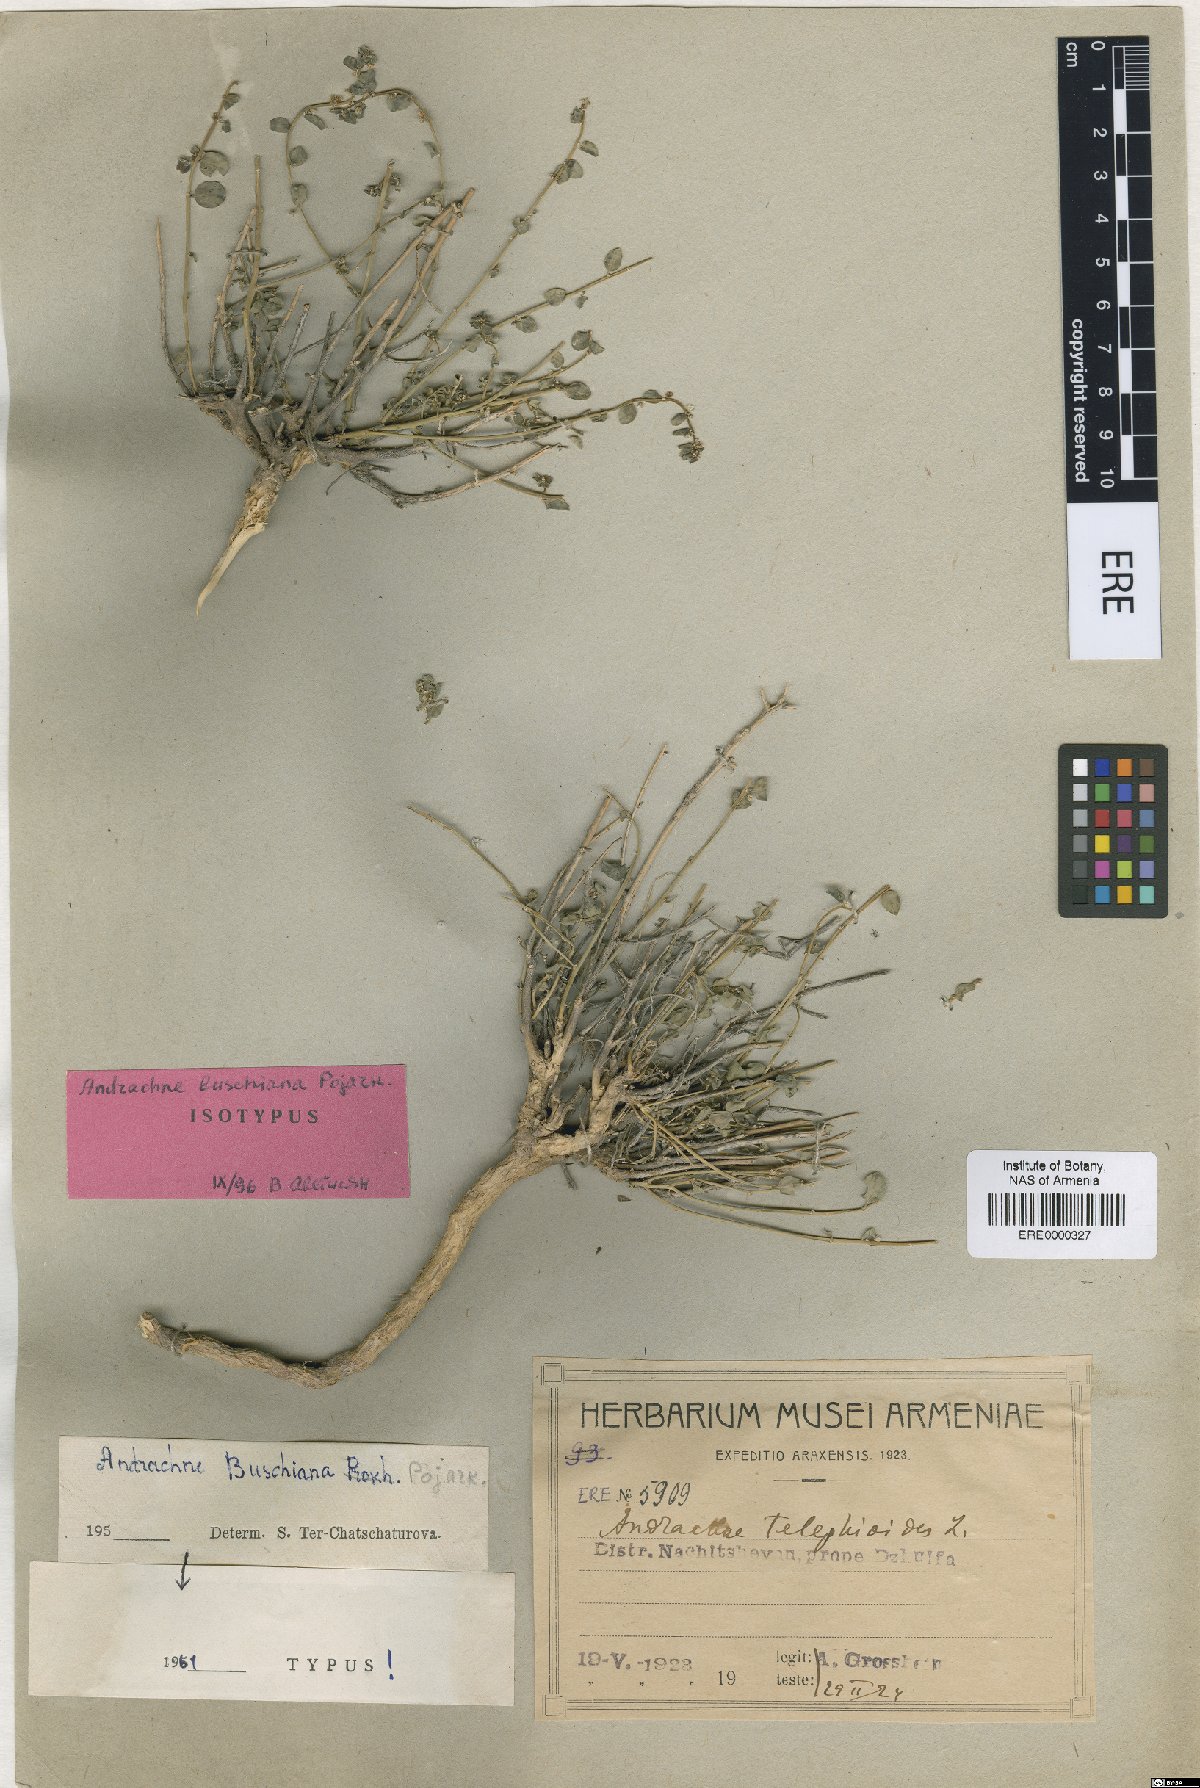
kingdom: Plantae
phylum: Tracheophyta
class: Magnoliopsida
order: Malpighiales
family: Phyllanthaceae
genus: Andrachne
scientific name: Andrachne buschiana
